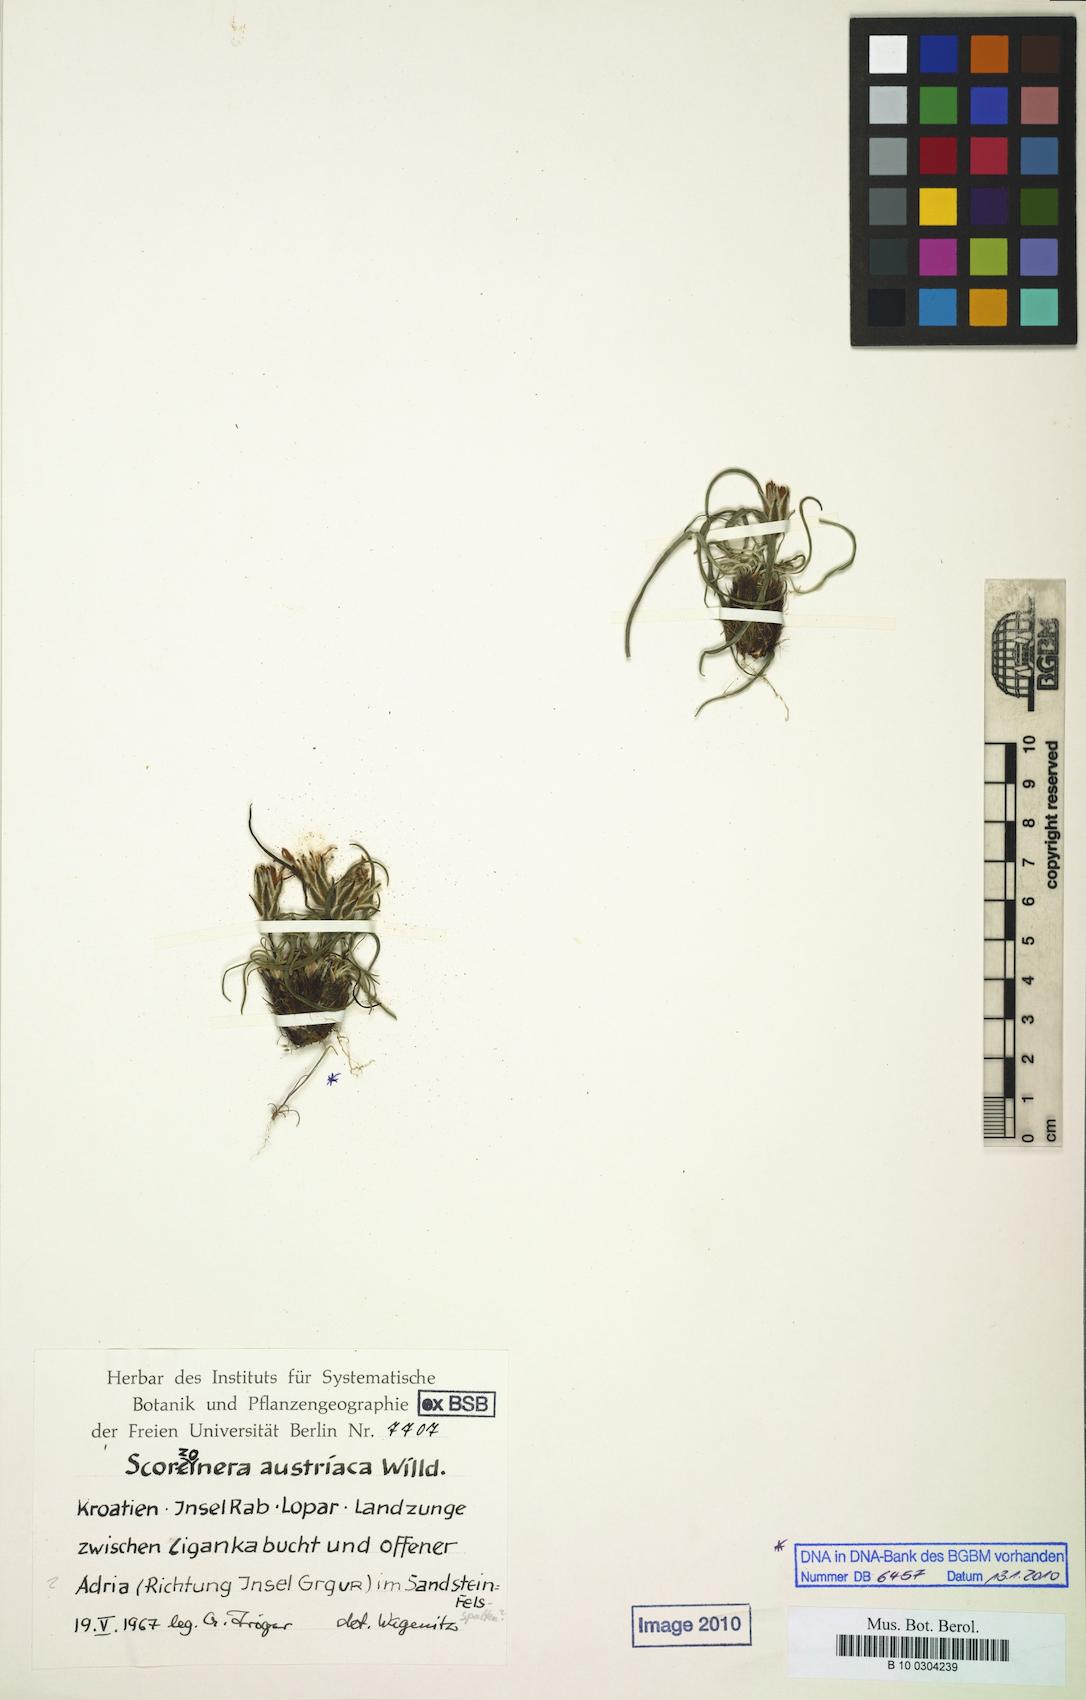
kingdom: Plantae
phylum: Tracheophyta
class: Magnoliopsida
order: Asterales
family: Asteraceae
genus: Takhtajaniantha
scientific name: Takhtajaniantha austriaca
